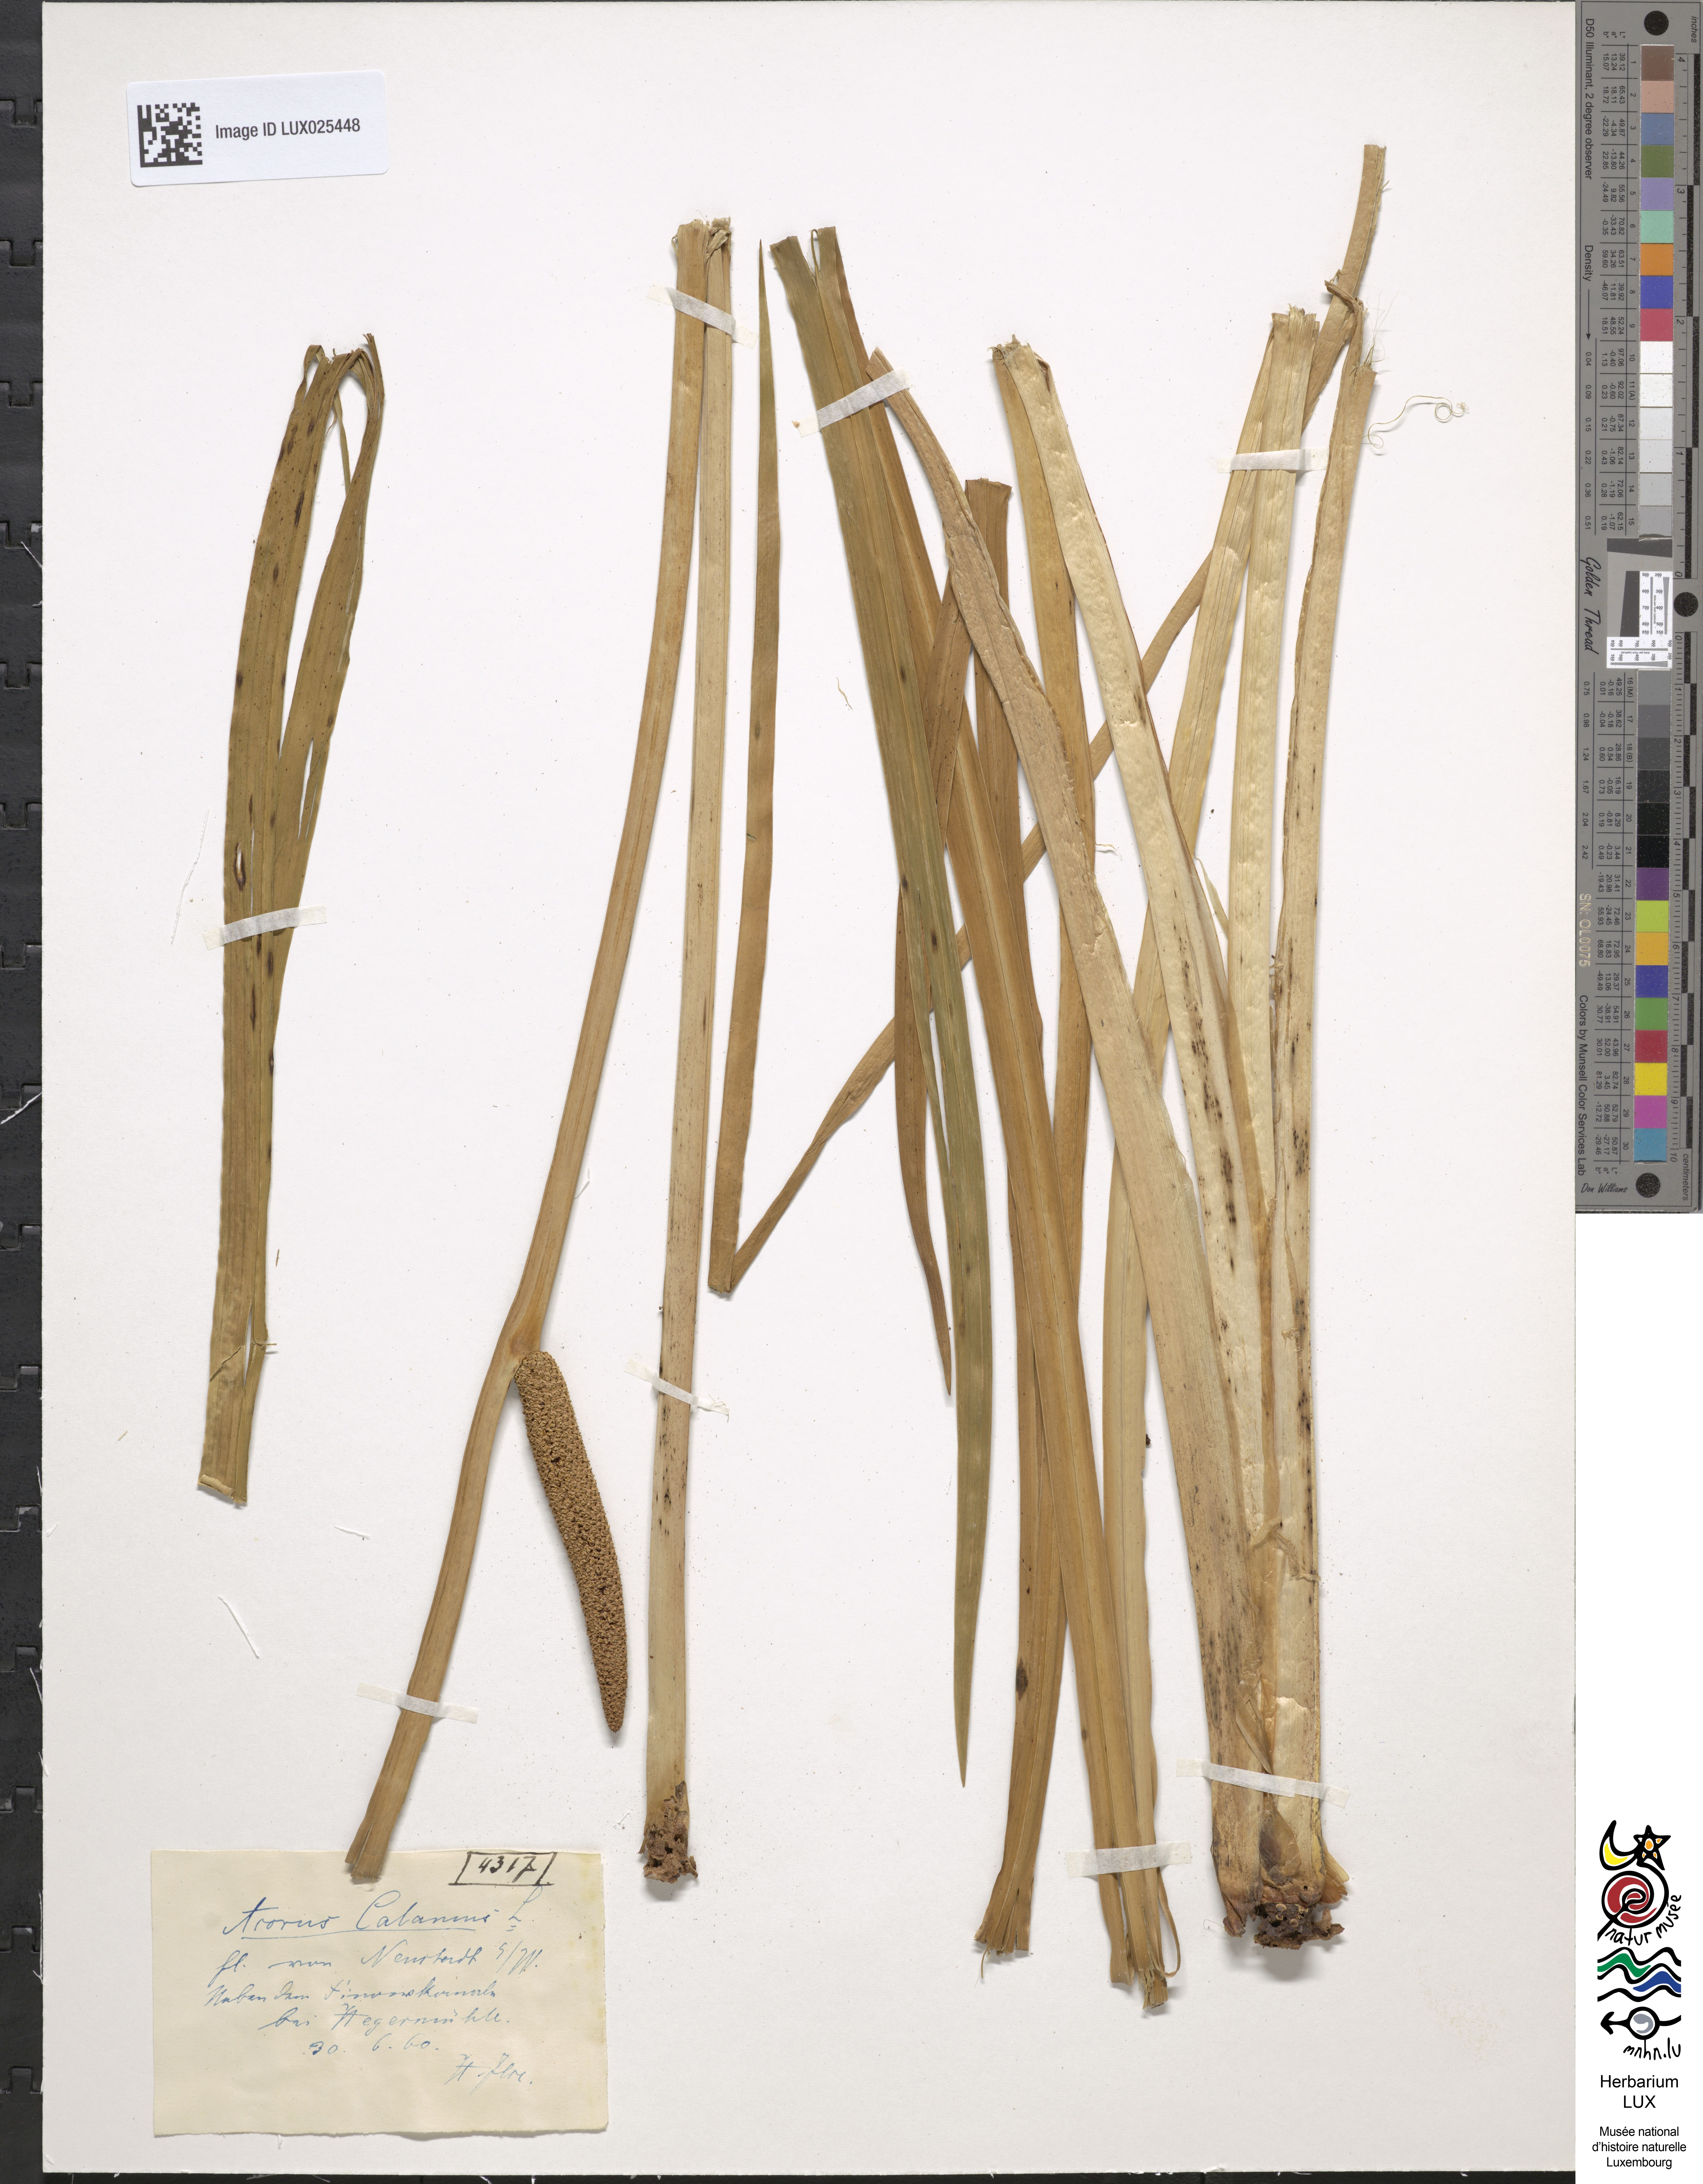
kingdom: Plantae
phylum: Tracheophyta
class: Liliopsida
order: Acorales
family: Acoraceae
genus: Acorus
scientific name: Acorus calamus
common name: Sweet-flag
